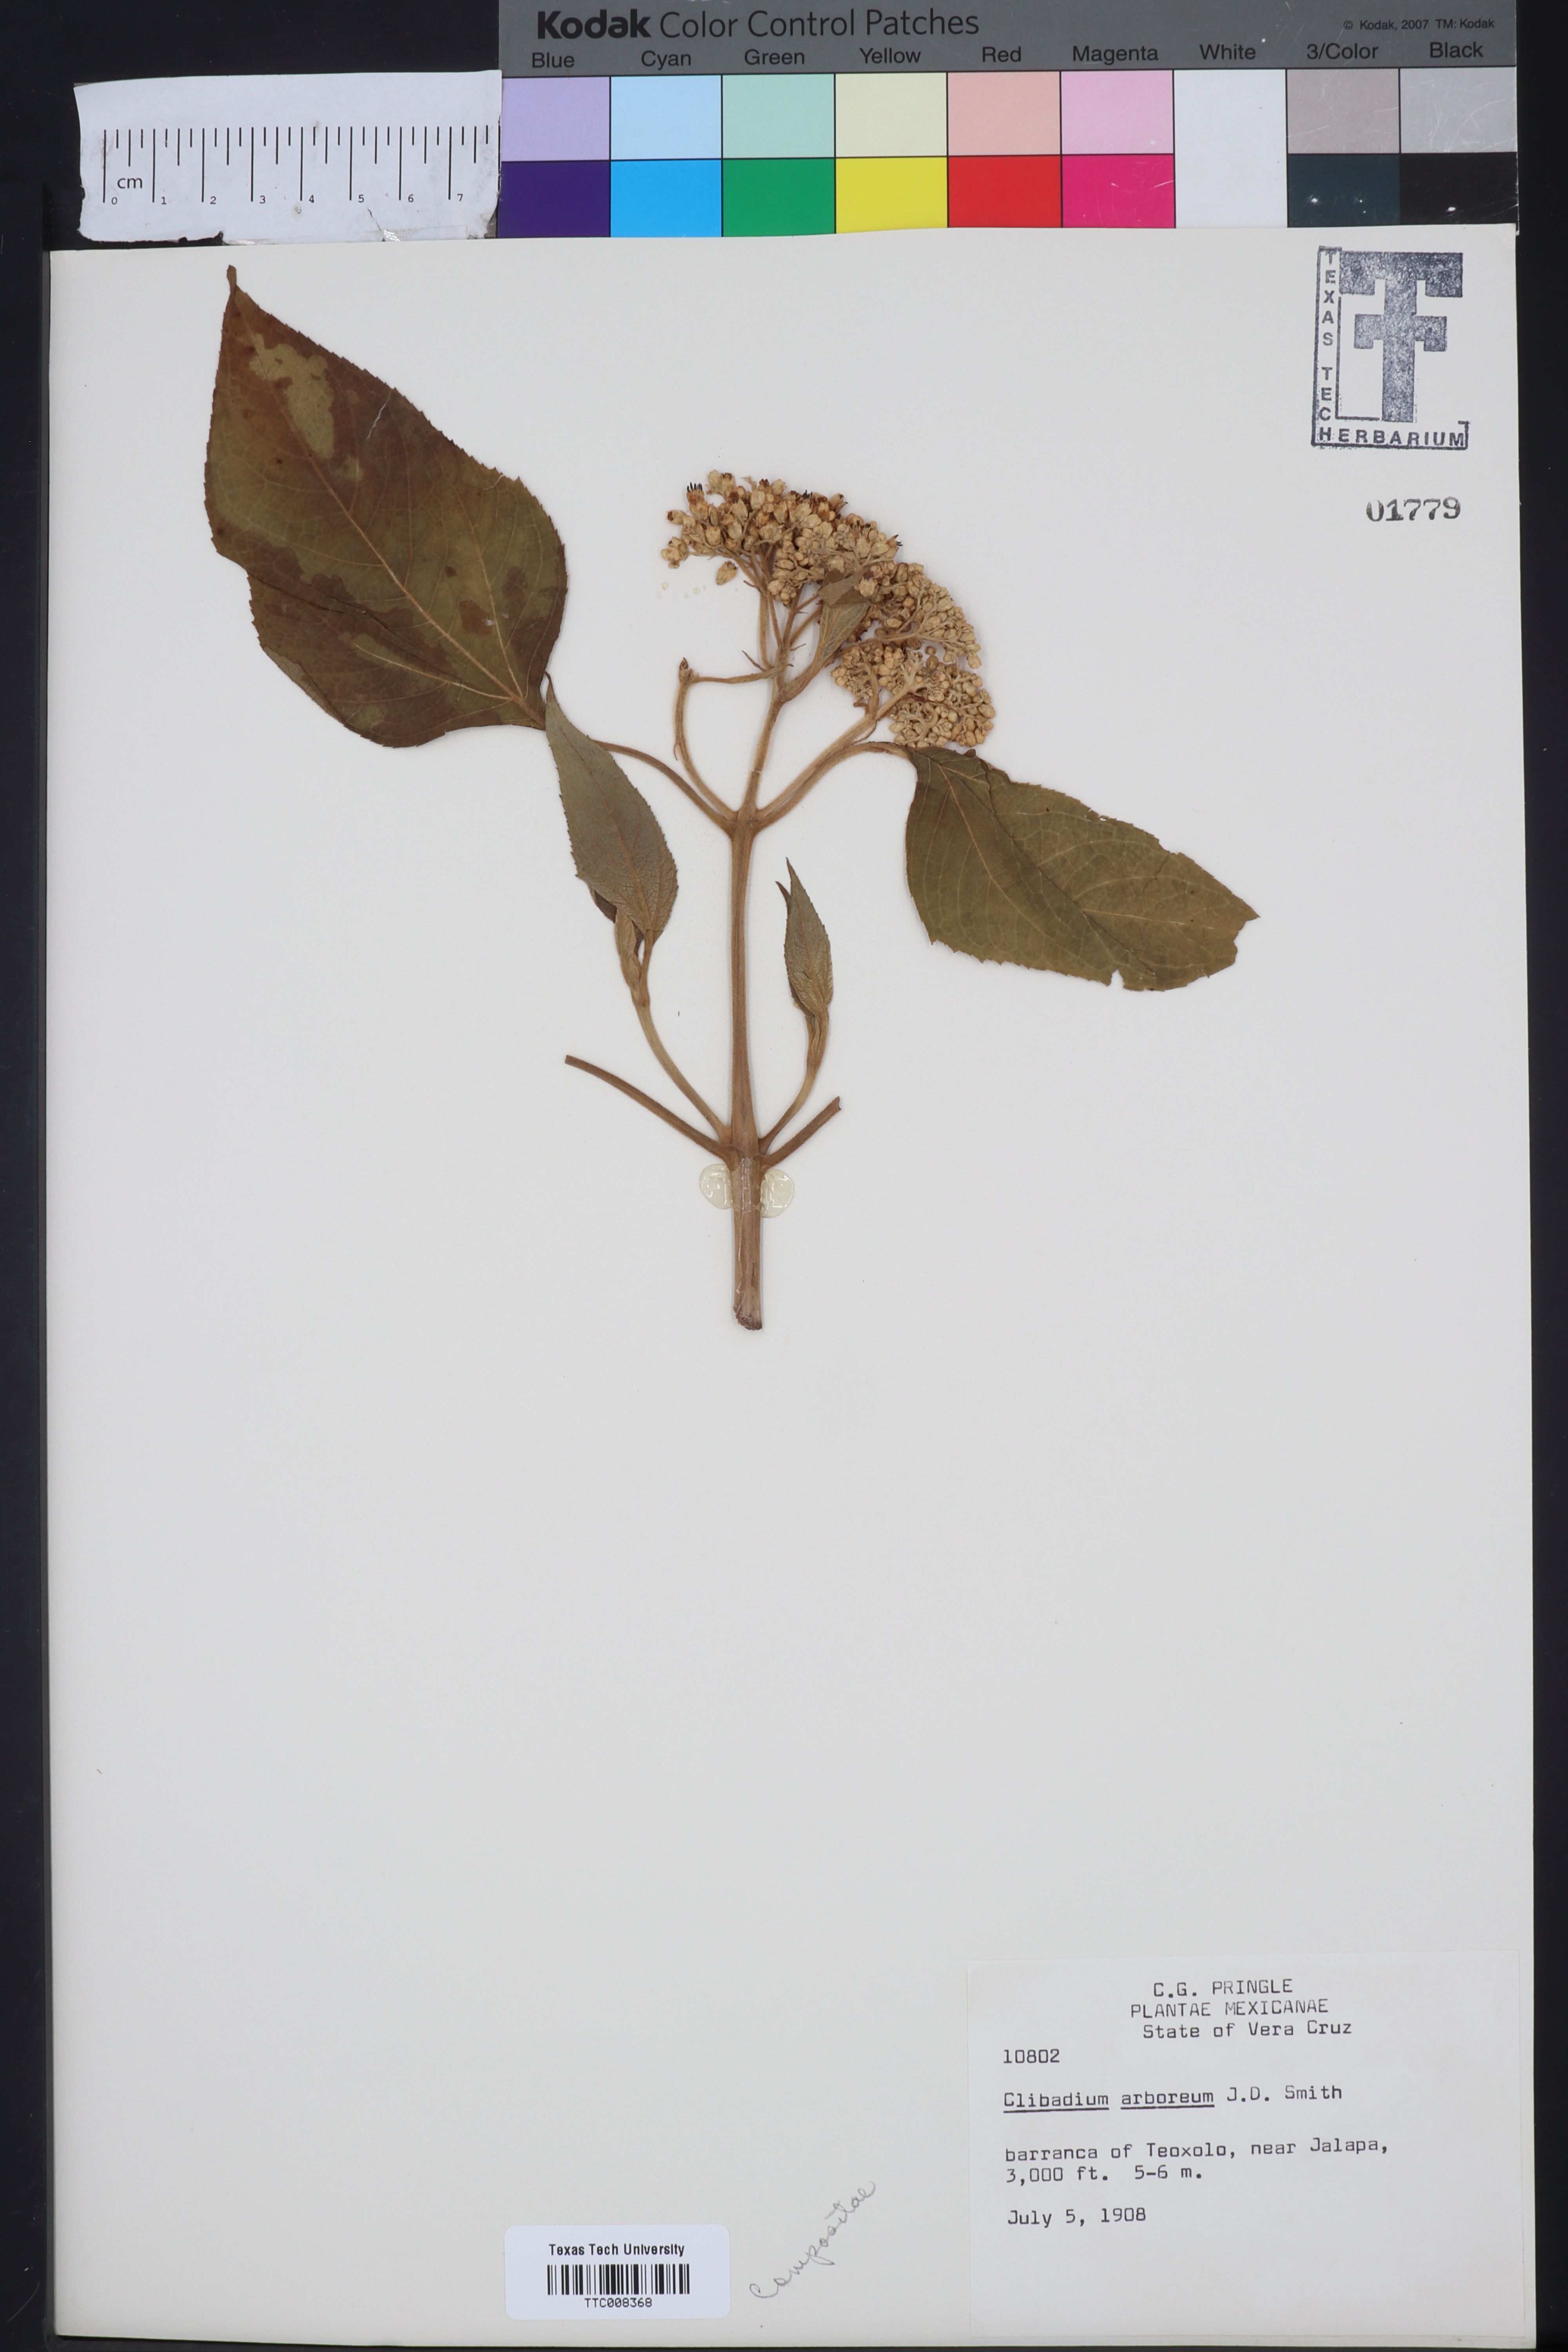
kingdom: Plantae
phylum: Tracheophyta
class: Magnoliopsida
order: Asterales
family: Asteraceae
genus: Clibadium
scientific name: Clibadium arboreum
